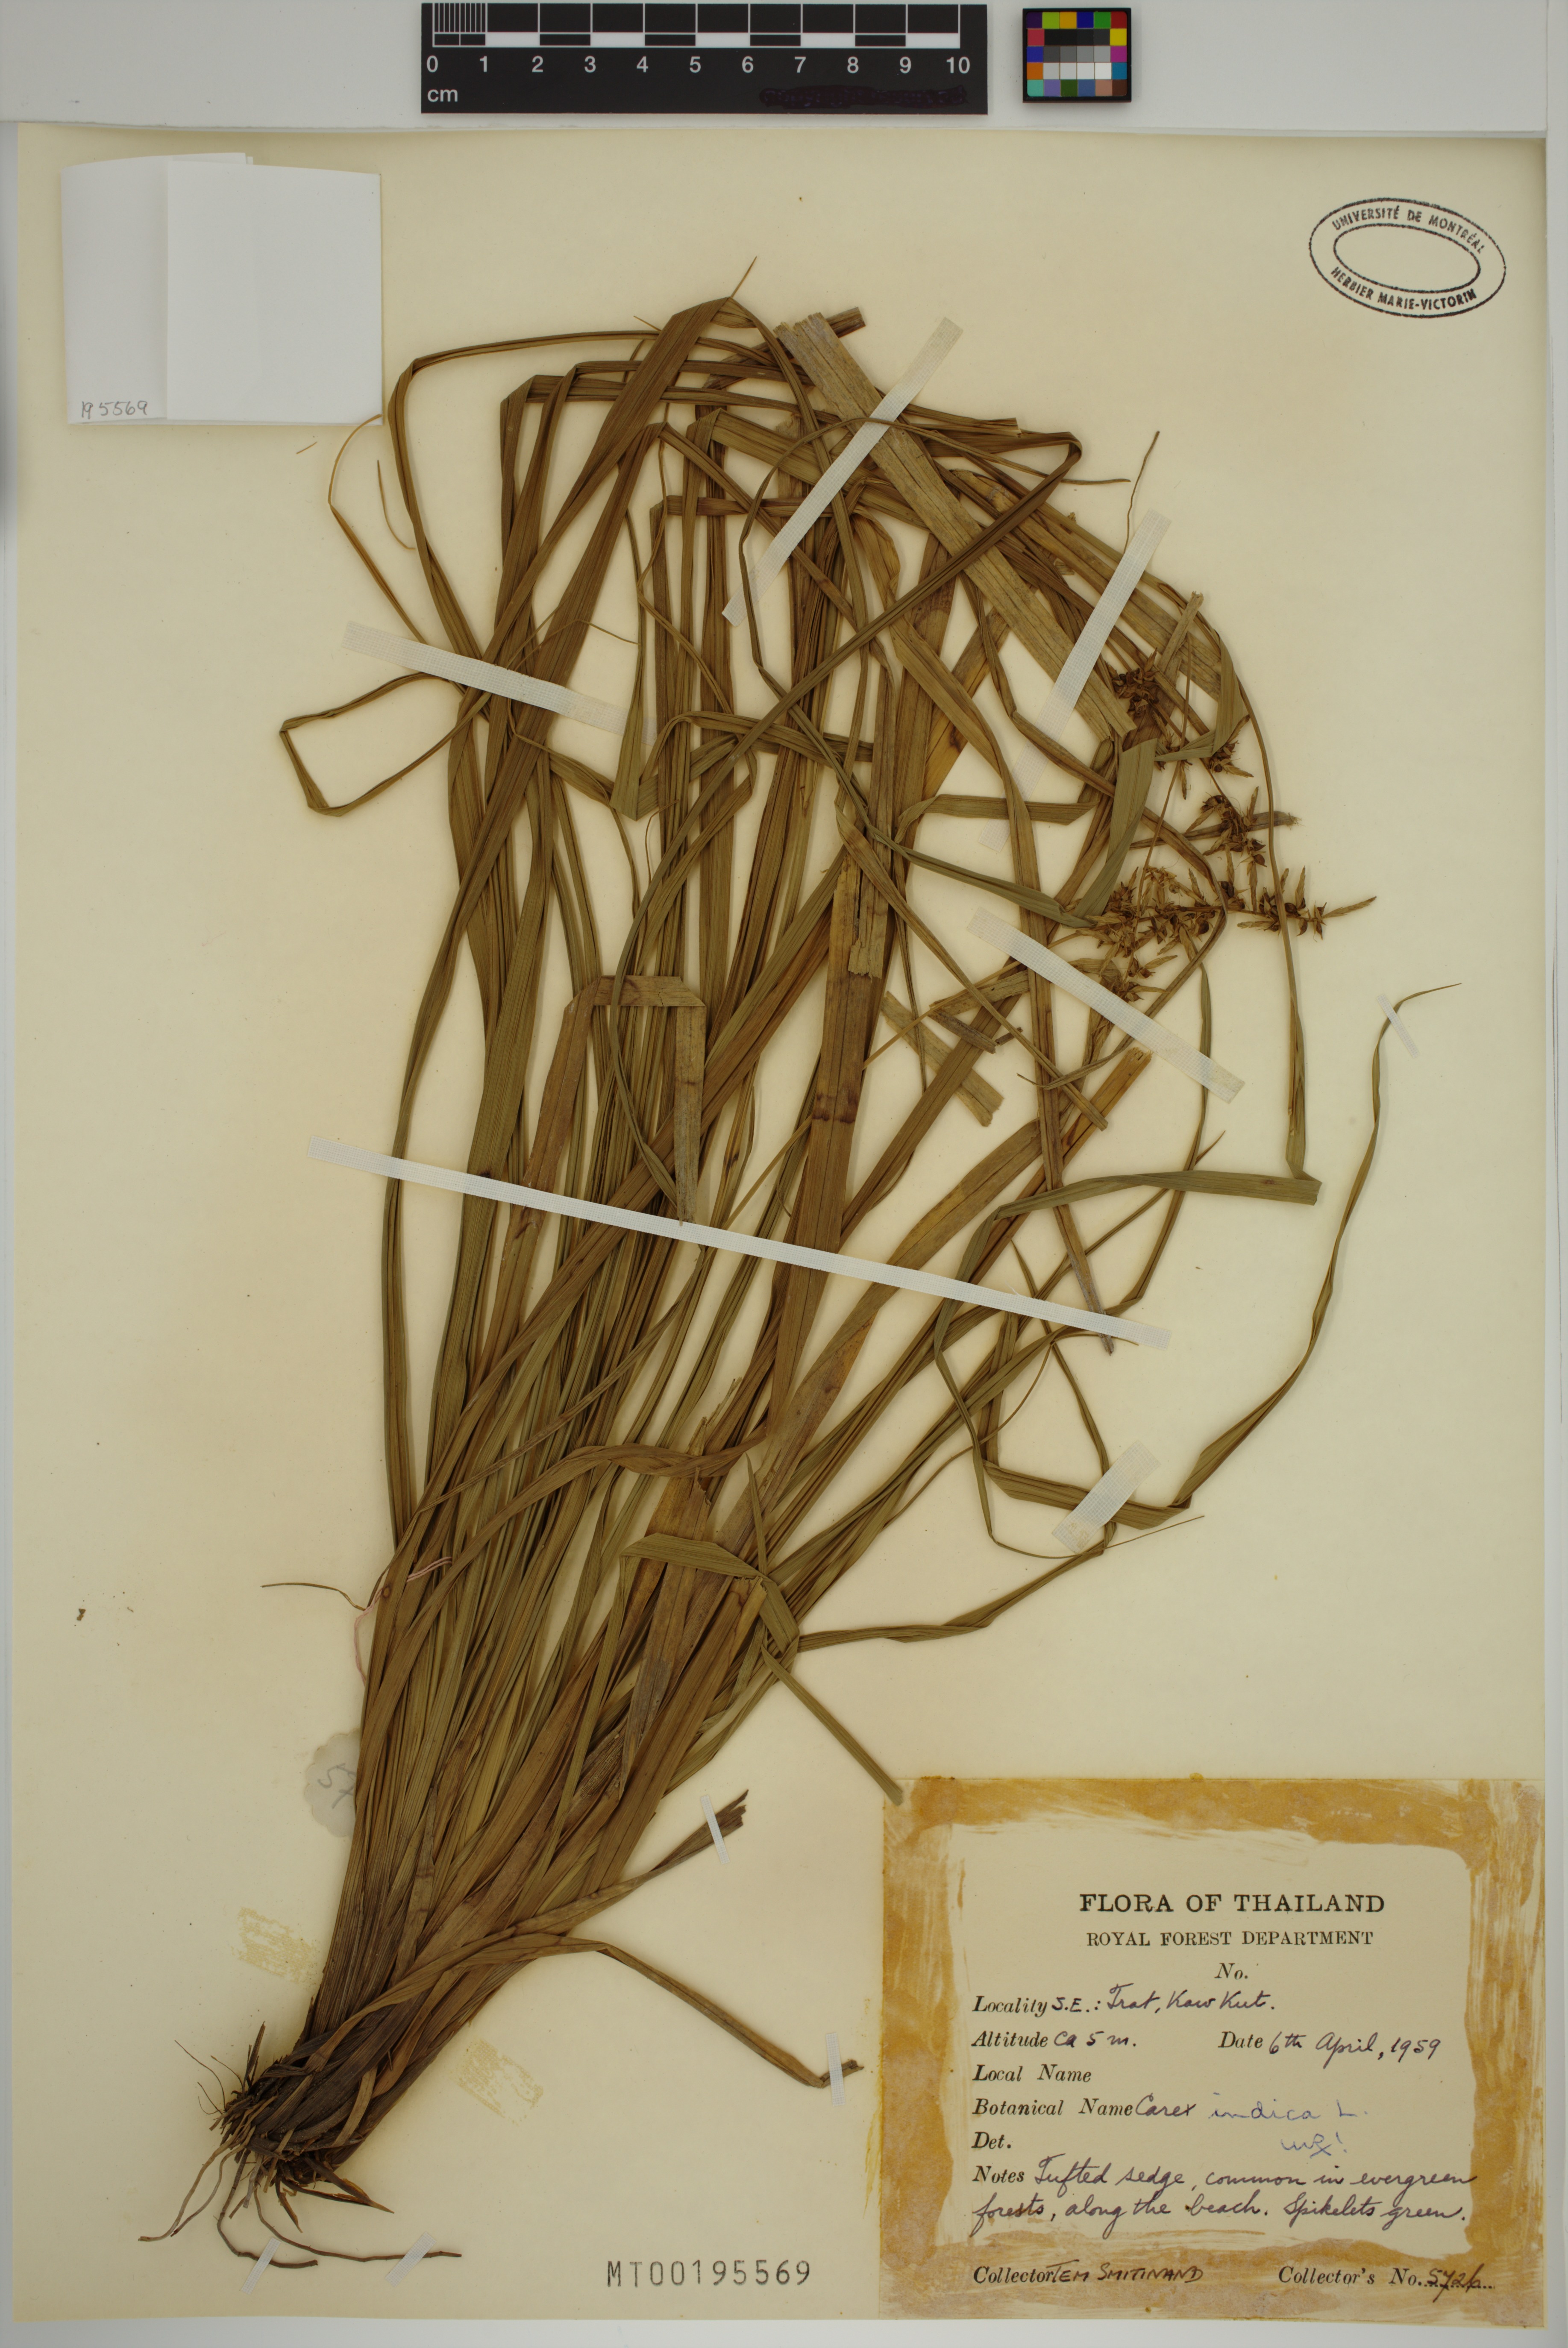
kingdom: Plantae
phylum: Tracheophyta
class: Liliopsida
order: Poales
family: Cyperaceae
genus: Carex
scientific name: Carex indica
